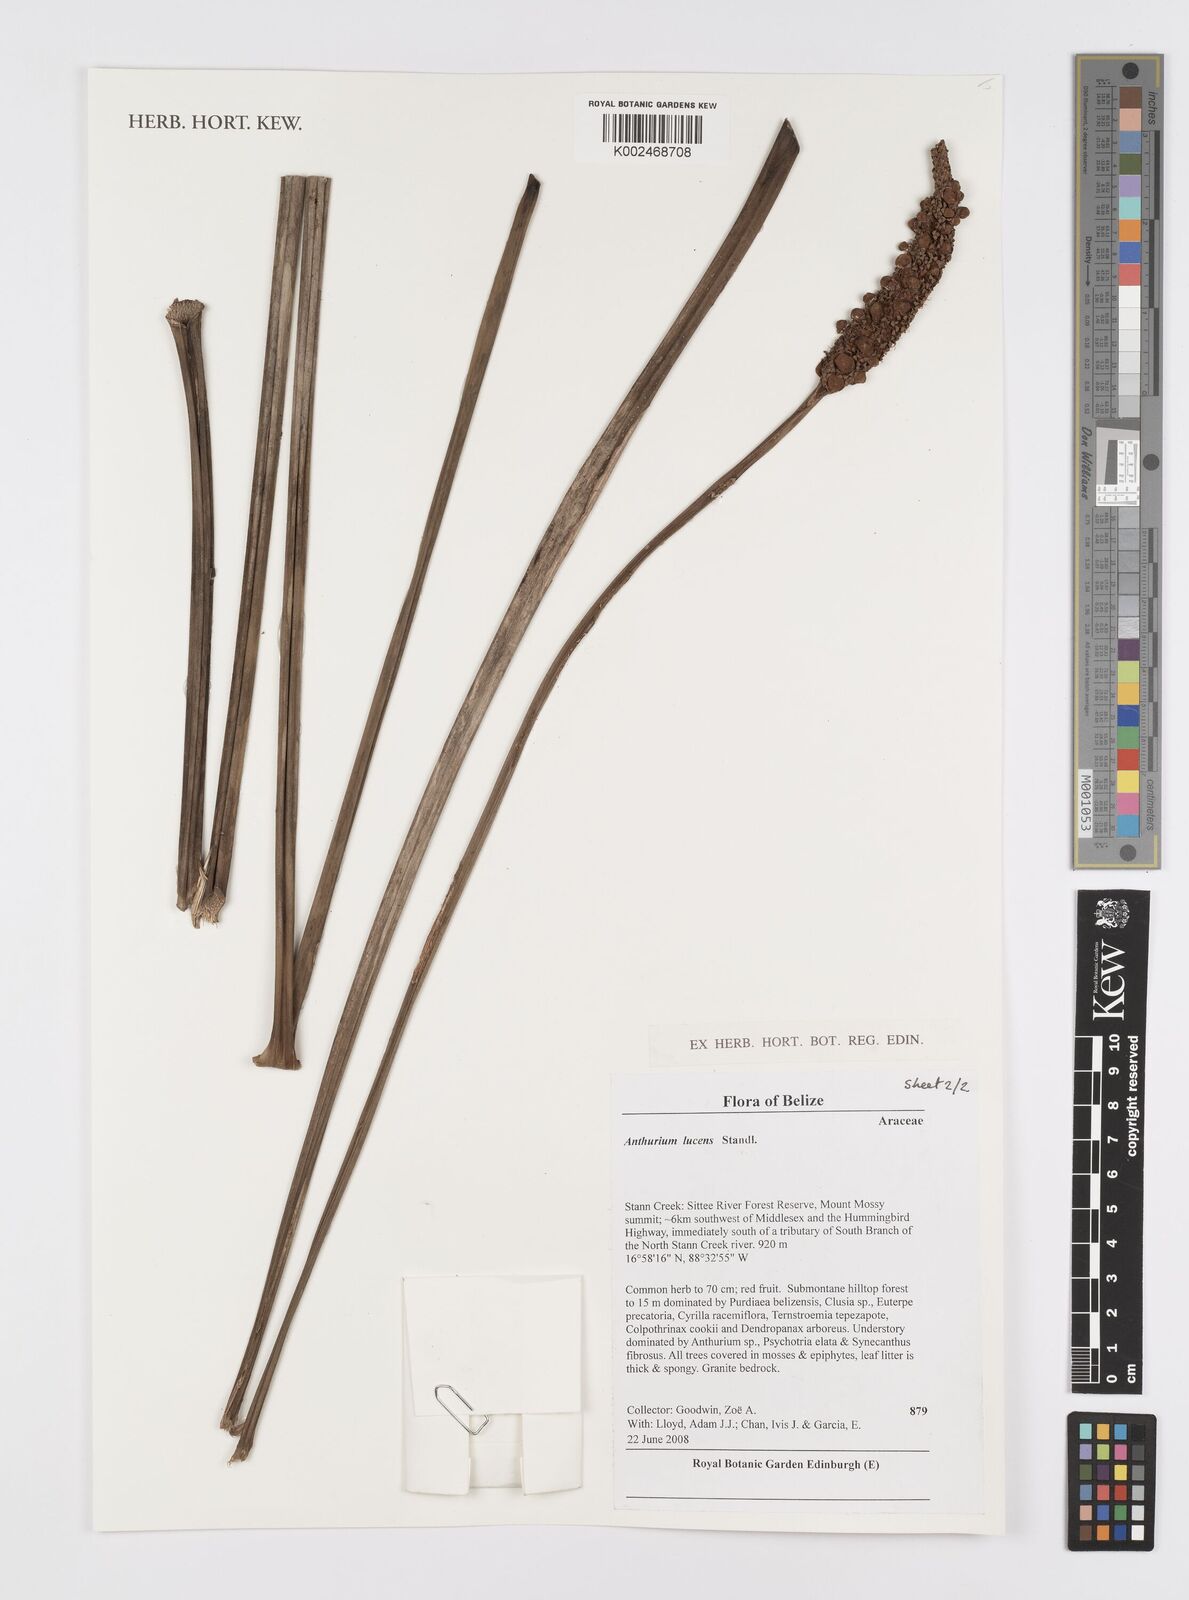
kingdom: Plantae
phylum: Tracheophyta
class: Liliopsida
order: Alismatales
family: Araceae
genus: Anthurium
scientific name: Anthurium lucens
